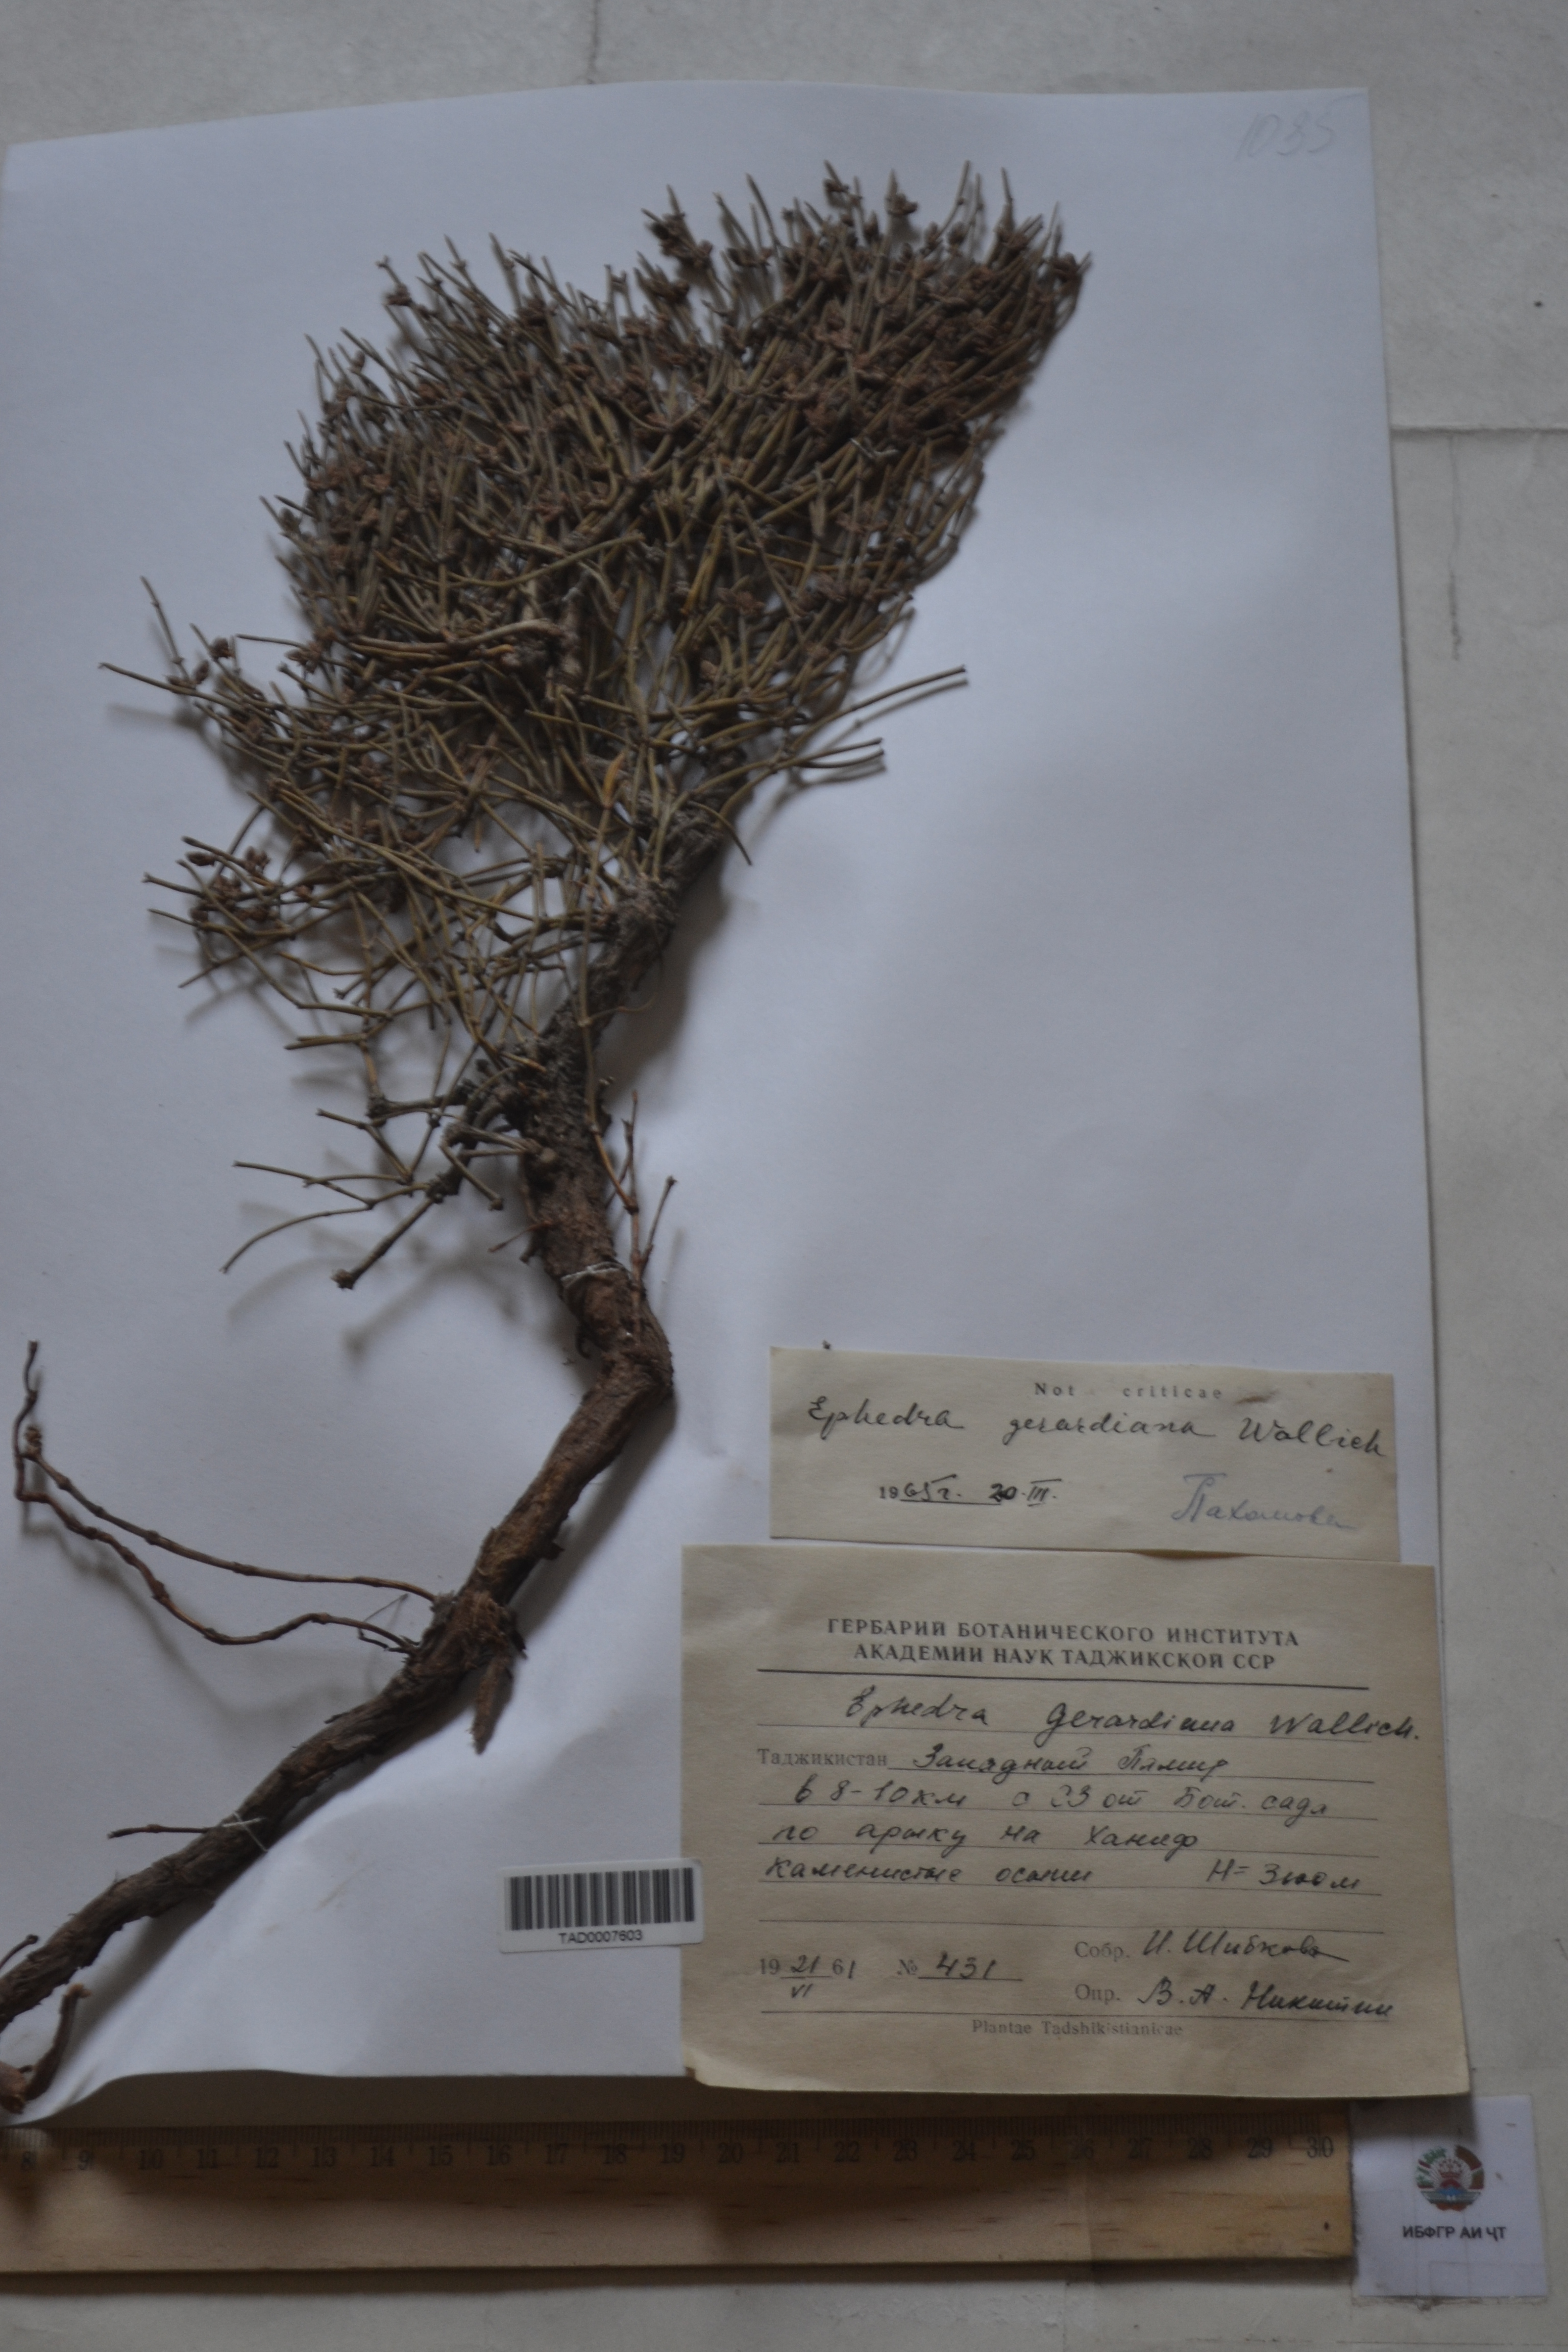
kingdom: Plantae
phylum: Tracheophyta
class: Gnetopsida
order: Ephedrales
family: Ephedraceae
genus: Ephedra
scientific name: Ephedra gerardiana
